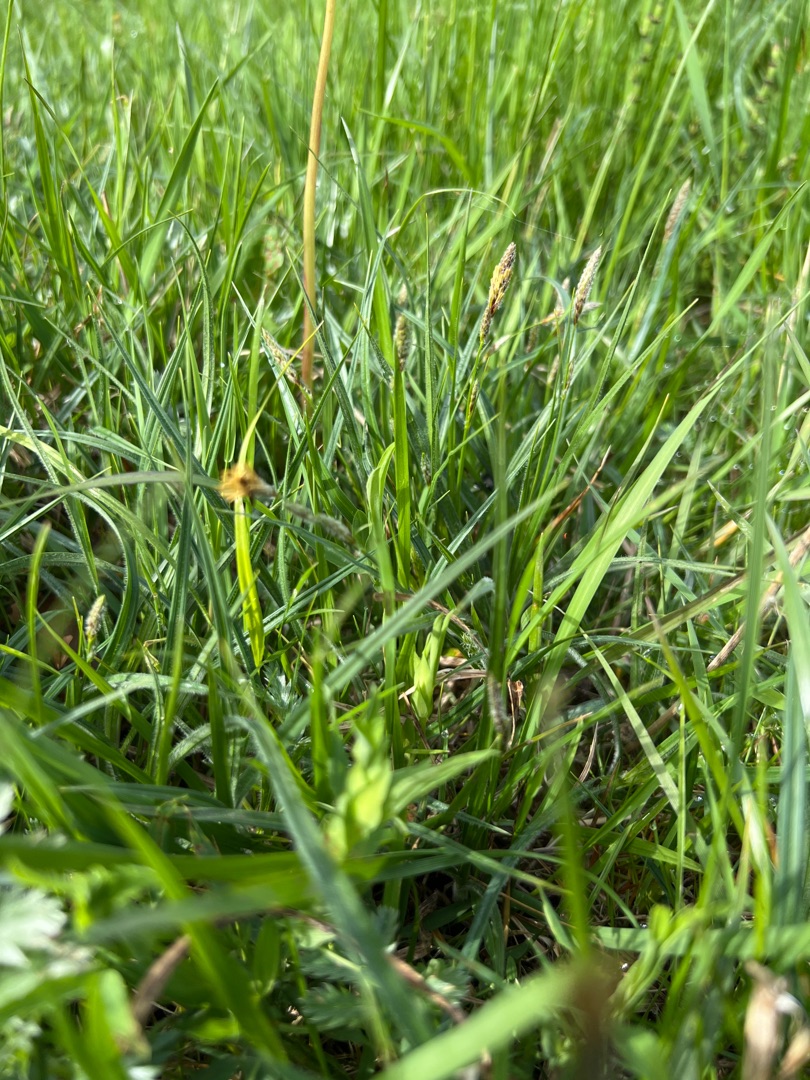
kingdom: Plantae
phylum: Tracheophyta
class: Liliopsida
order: Poales
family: Cyperaceae
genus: Carex
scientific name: Carex hirta
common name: Håret star
